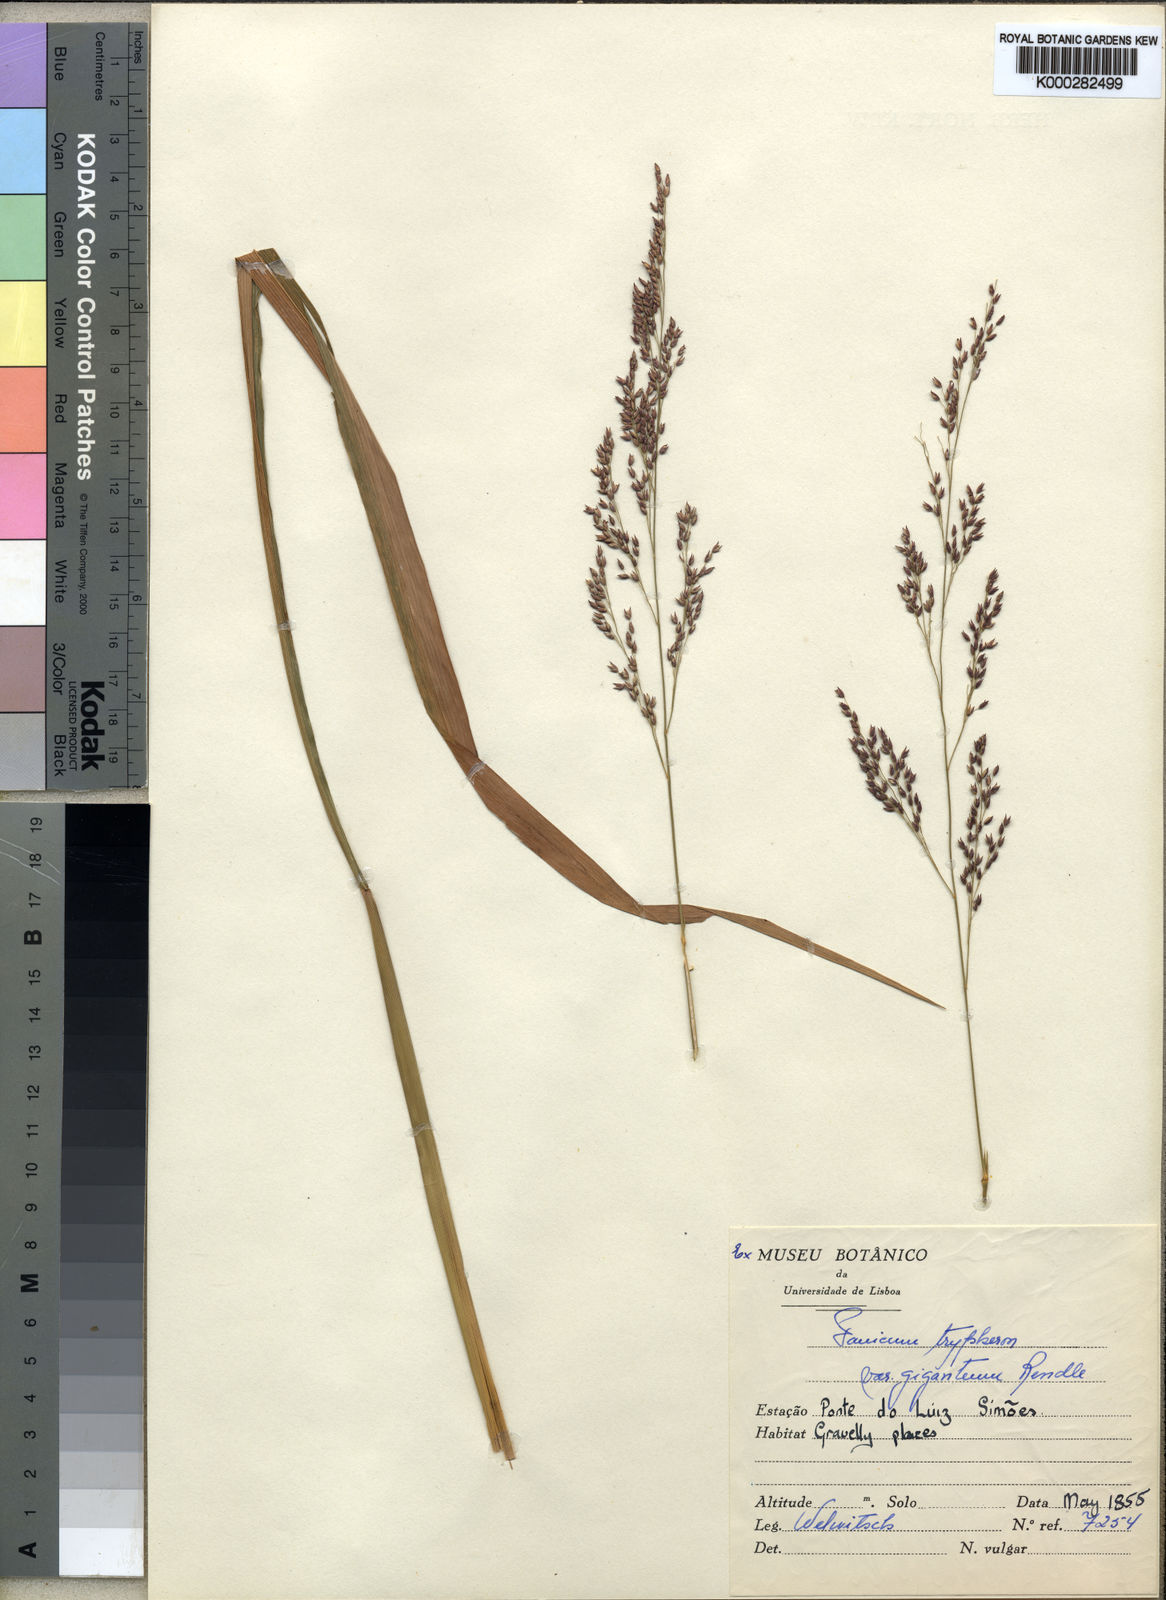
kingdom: Plantae
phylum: Tracheophyta
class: Liliopsida
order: Poales
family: Poaceae
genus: Panicum
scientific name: Panicum phragmitoides
